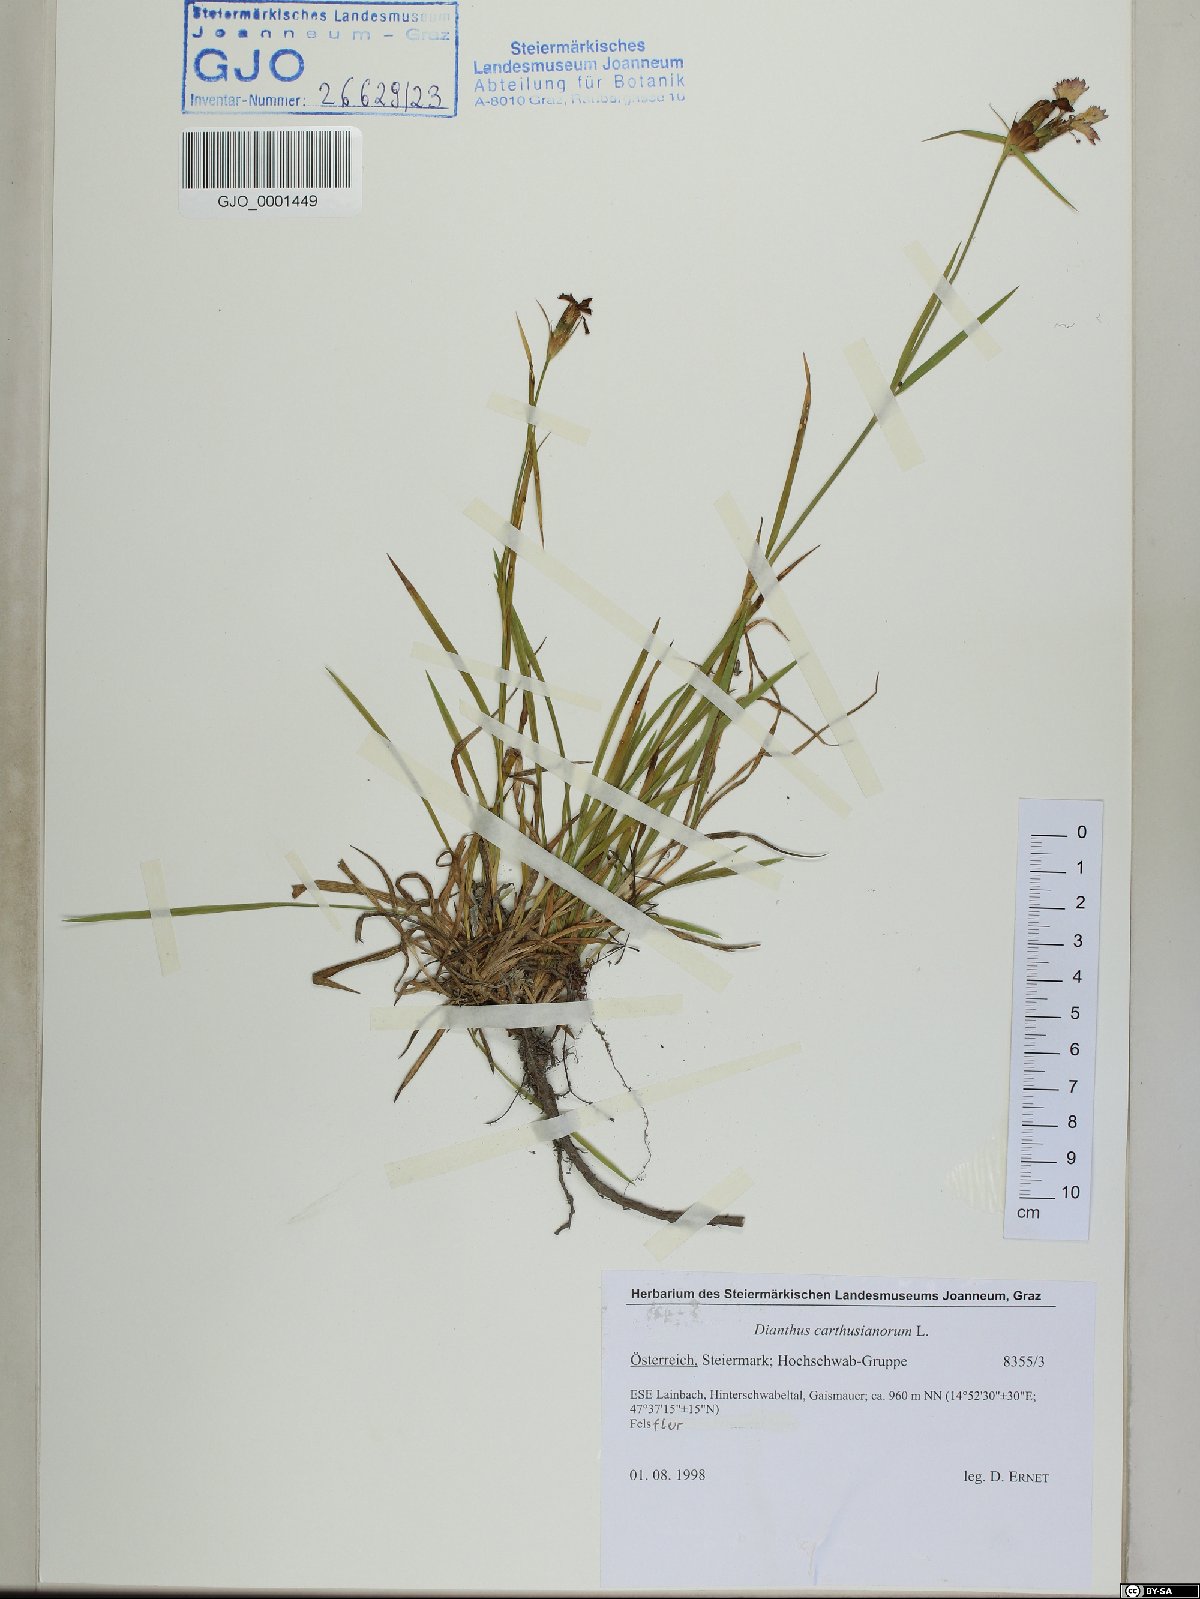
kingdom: Plantae
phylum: Tracheophyta
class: Magnoliopsida
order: Caryophyllales
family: Caryophyllaceae
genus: Dianthus
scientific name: Dianthus carthusianorum
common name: Carthusian pink
